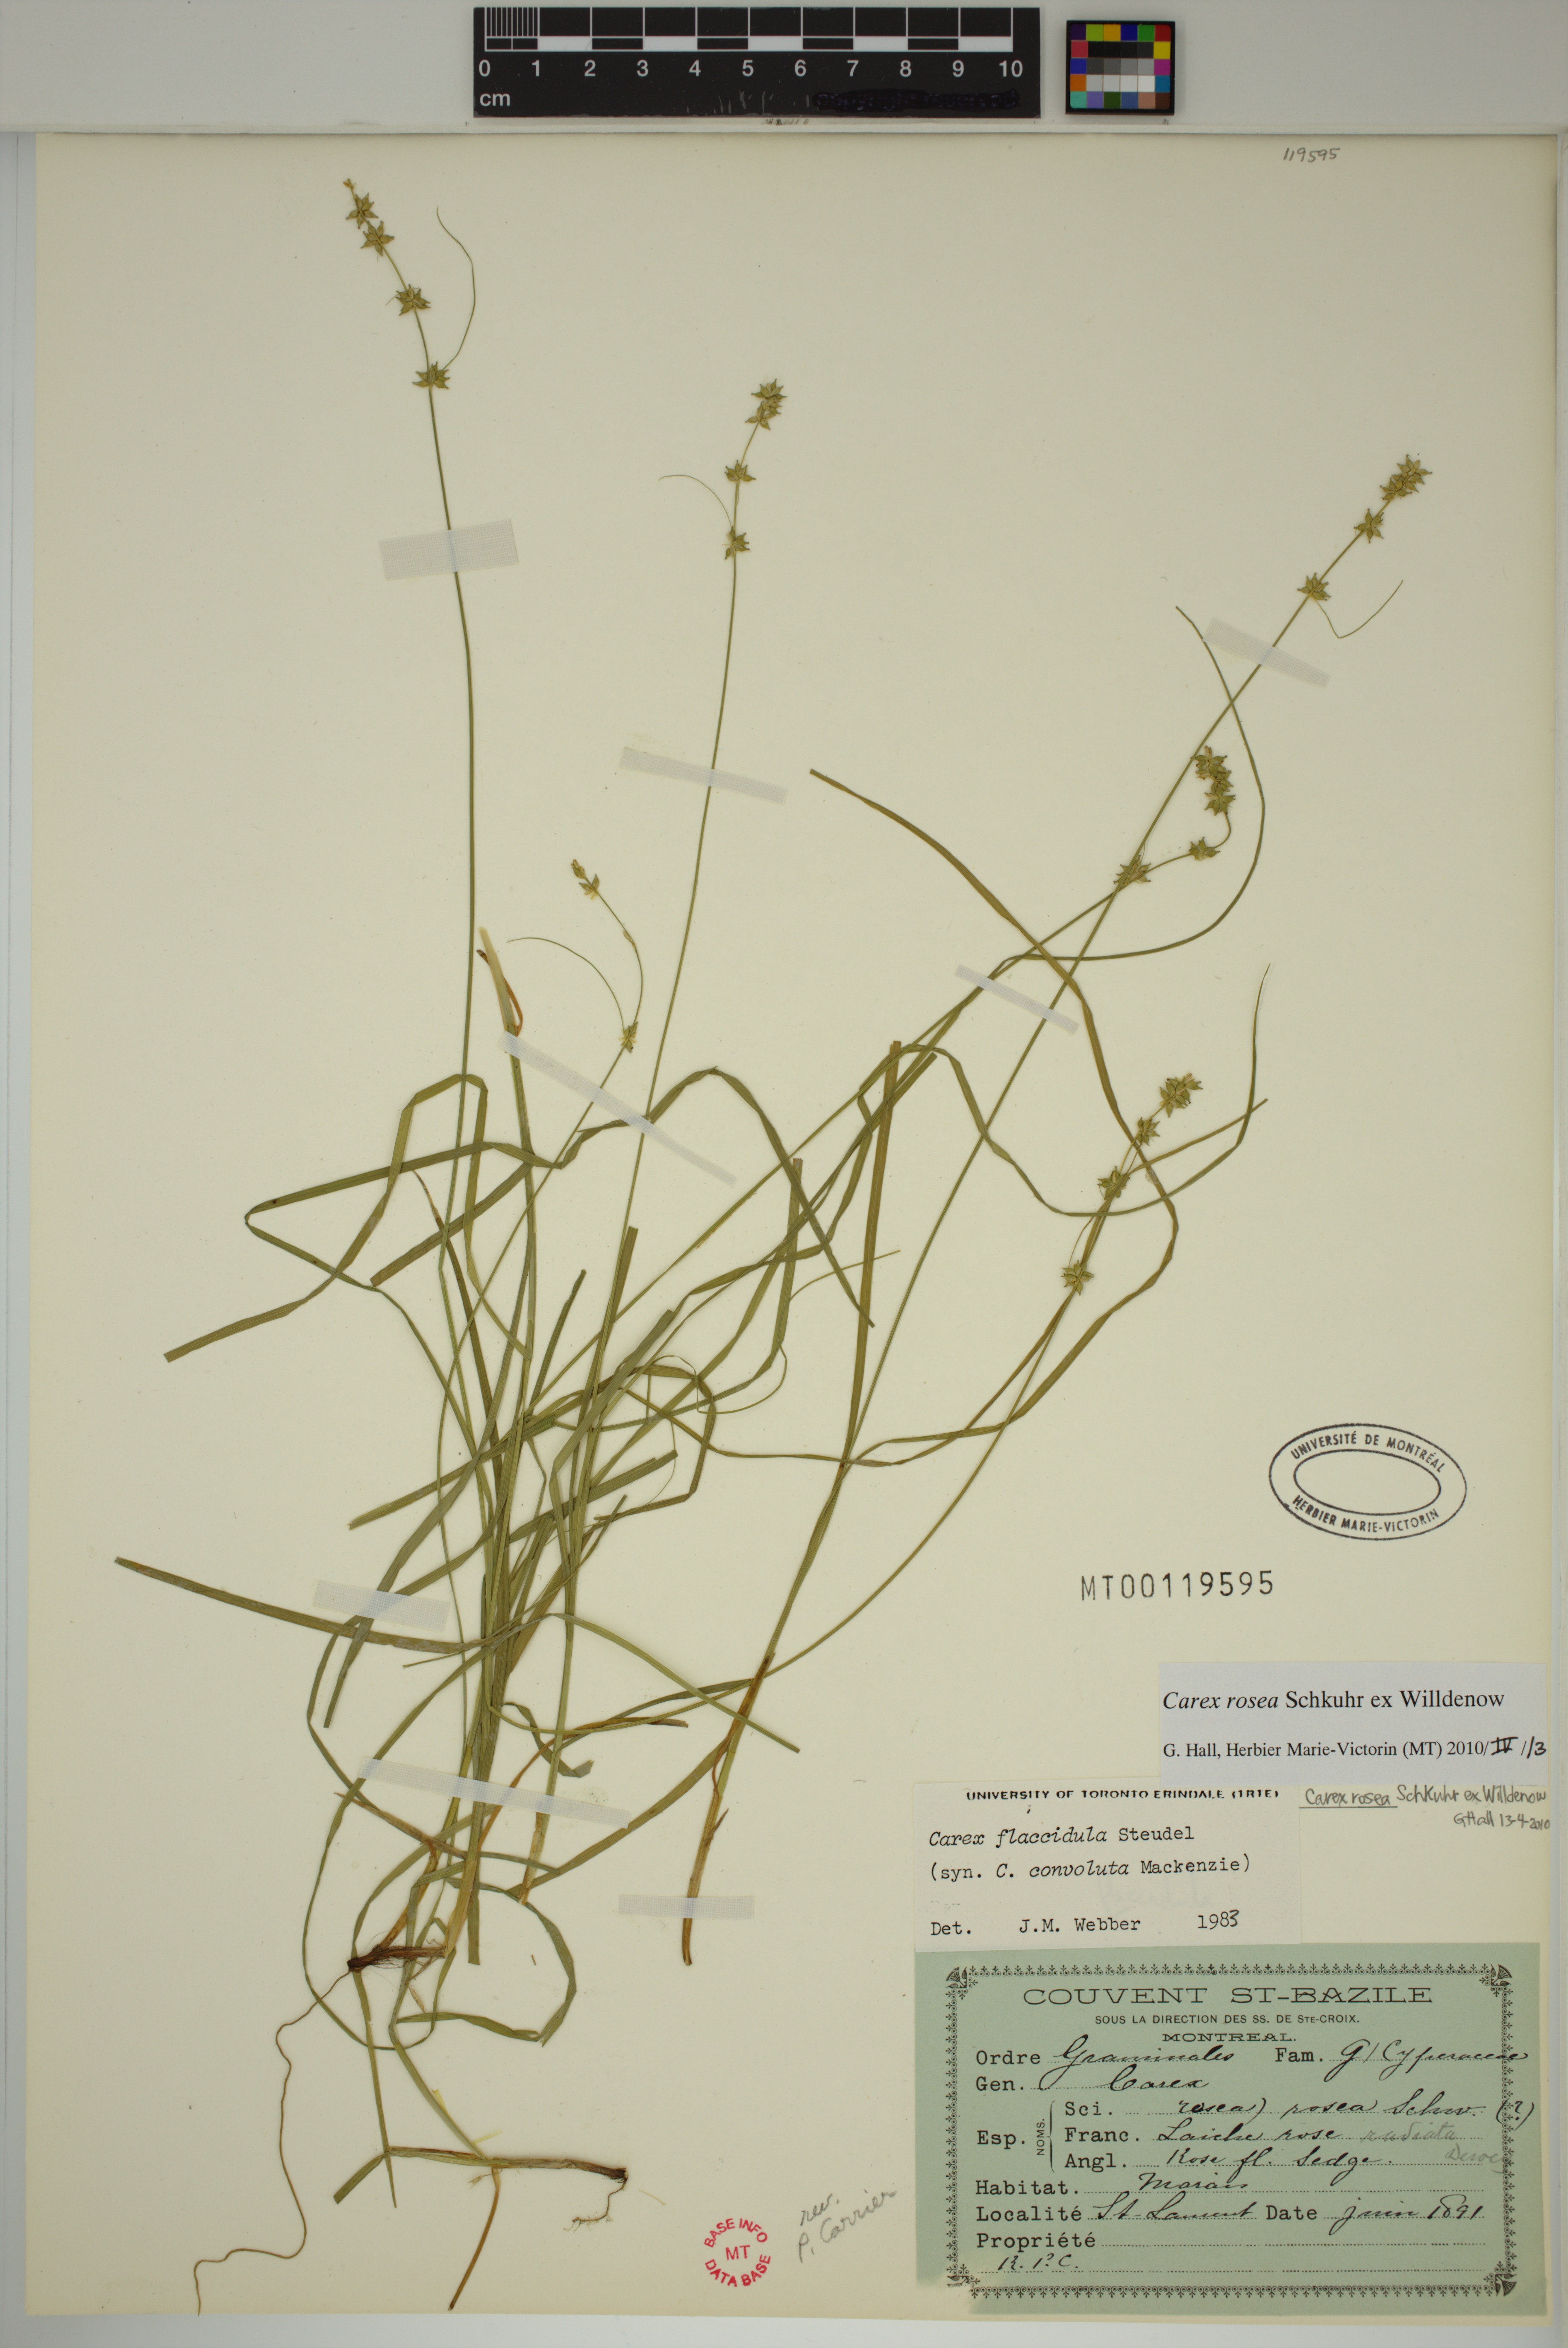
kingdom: Plantae
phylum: Tracheophyta
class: Liliopsida
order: Poales
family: Cyperaceae
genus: Carex
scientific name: Carex rosea
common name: Curly-styled wood sedge
